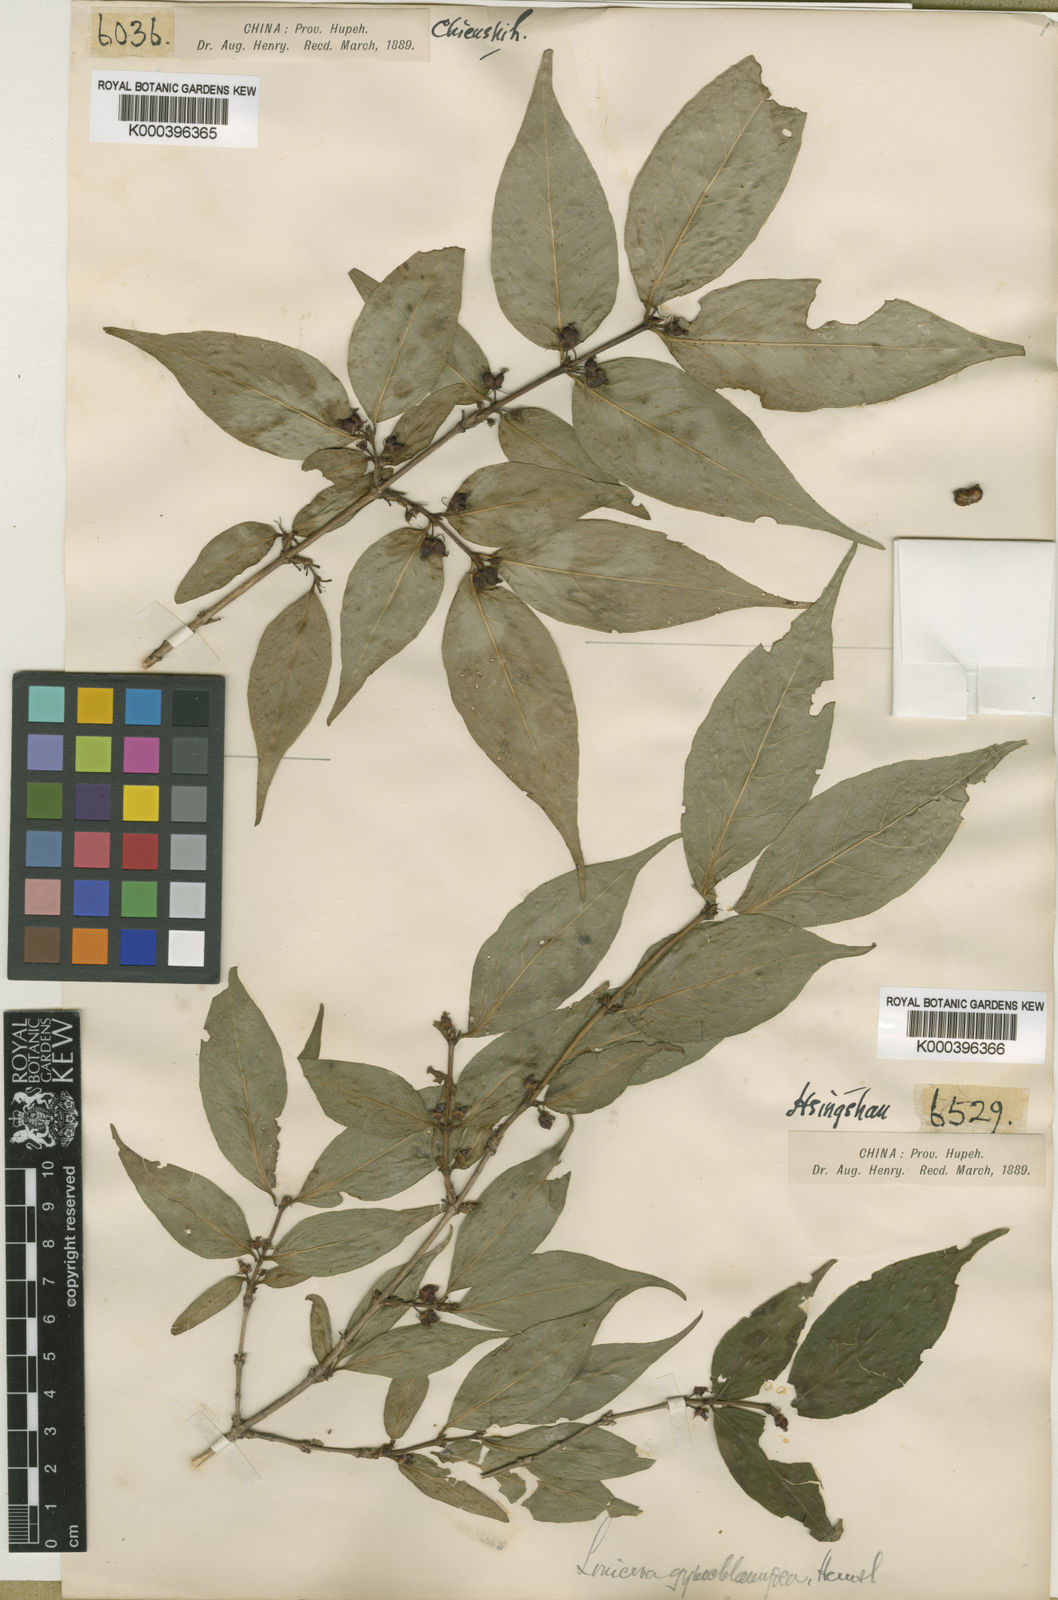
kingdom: Plantae
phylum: Tracheophyta
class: Magnoliopsida
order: Dipsacales
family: Caprifoliaceae
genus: Lonicera
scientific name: Lonicera gynochlamydea
